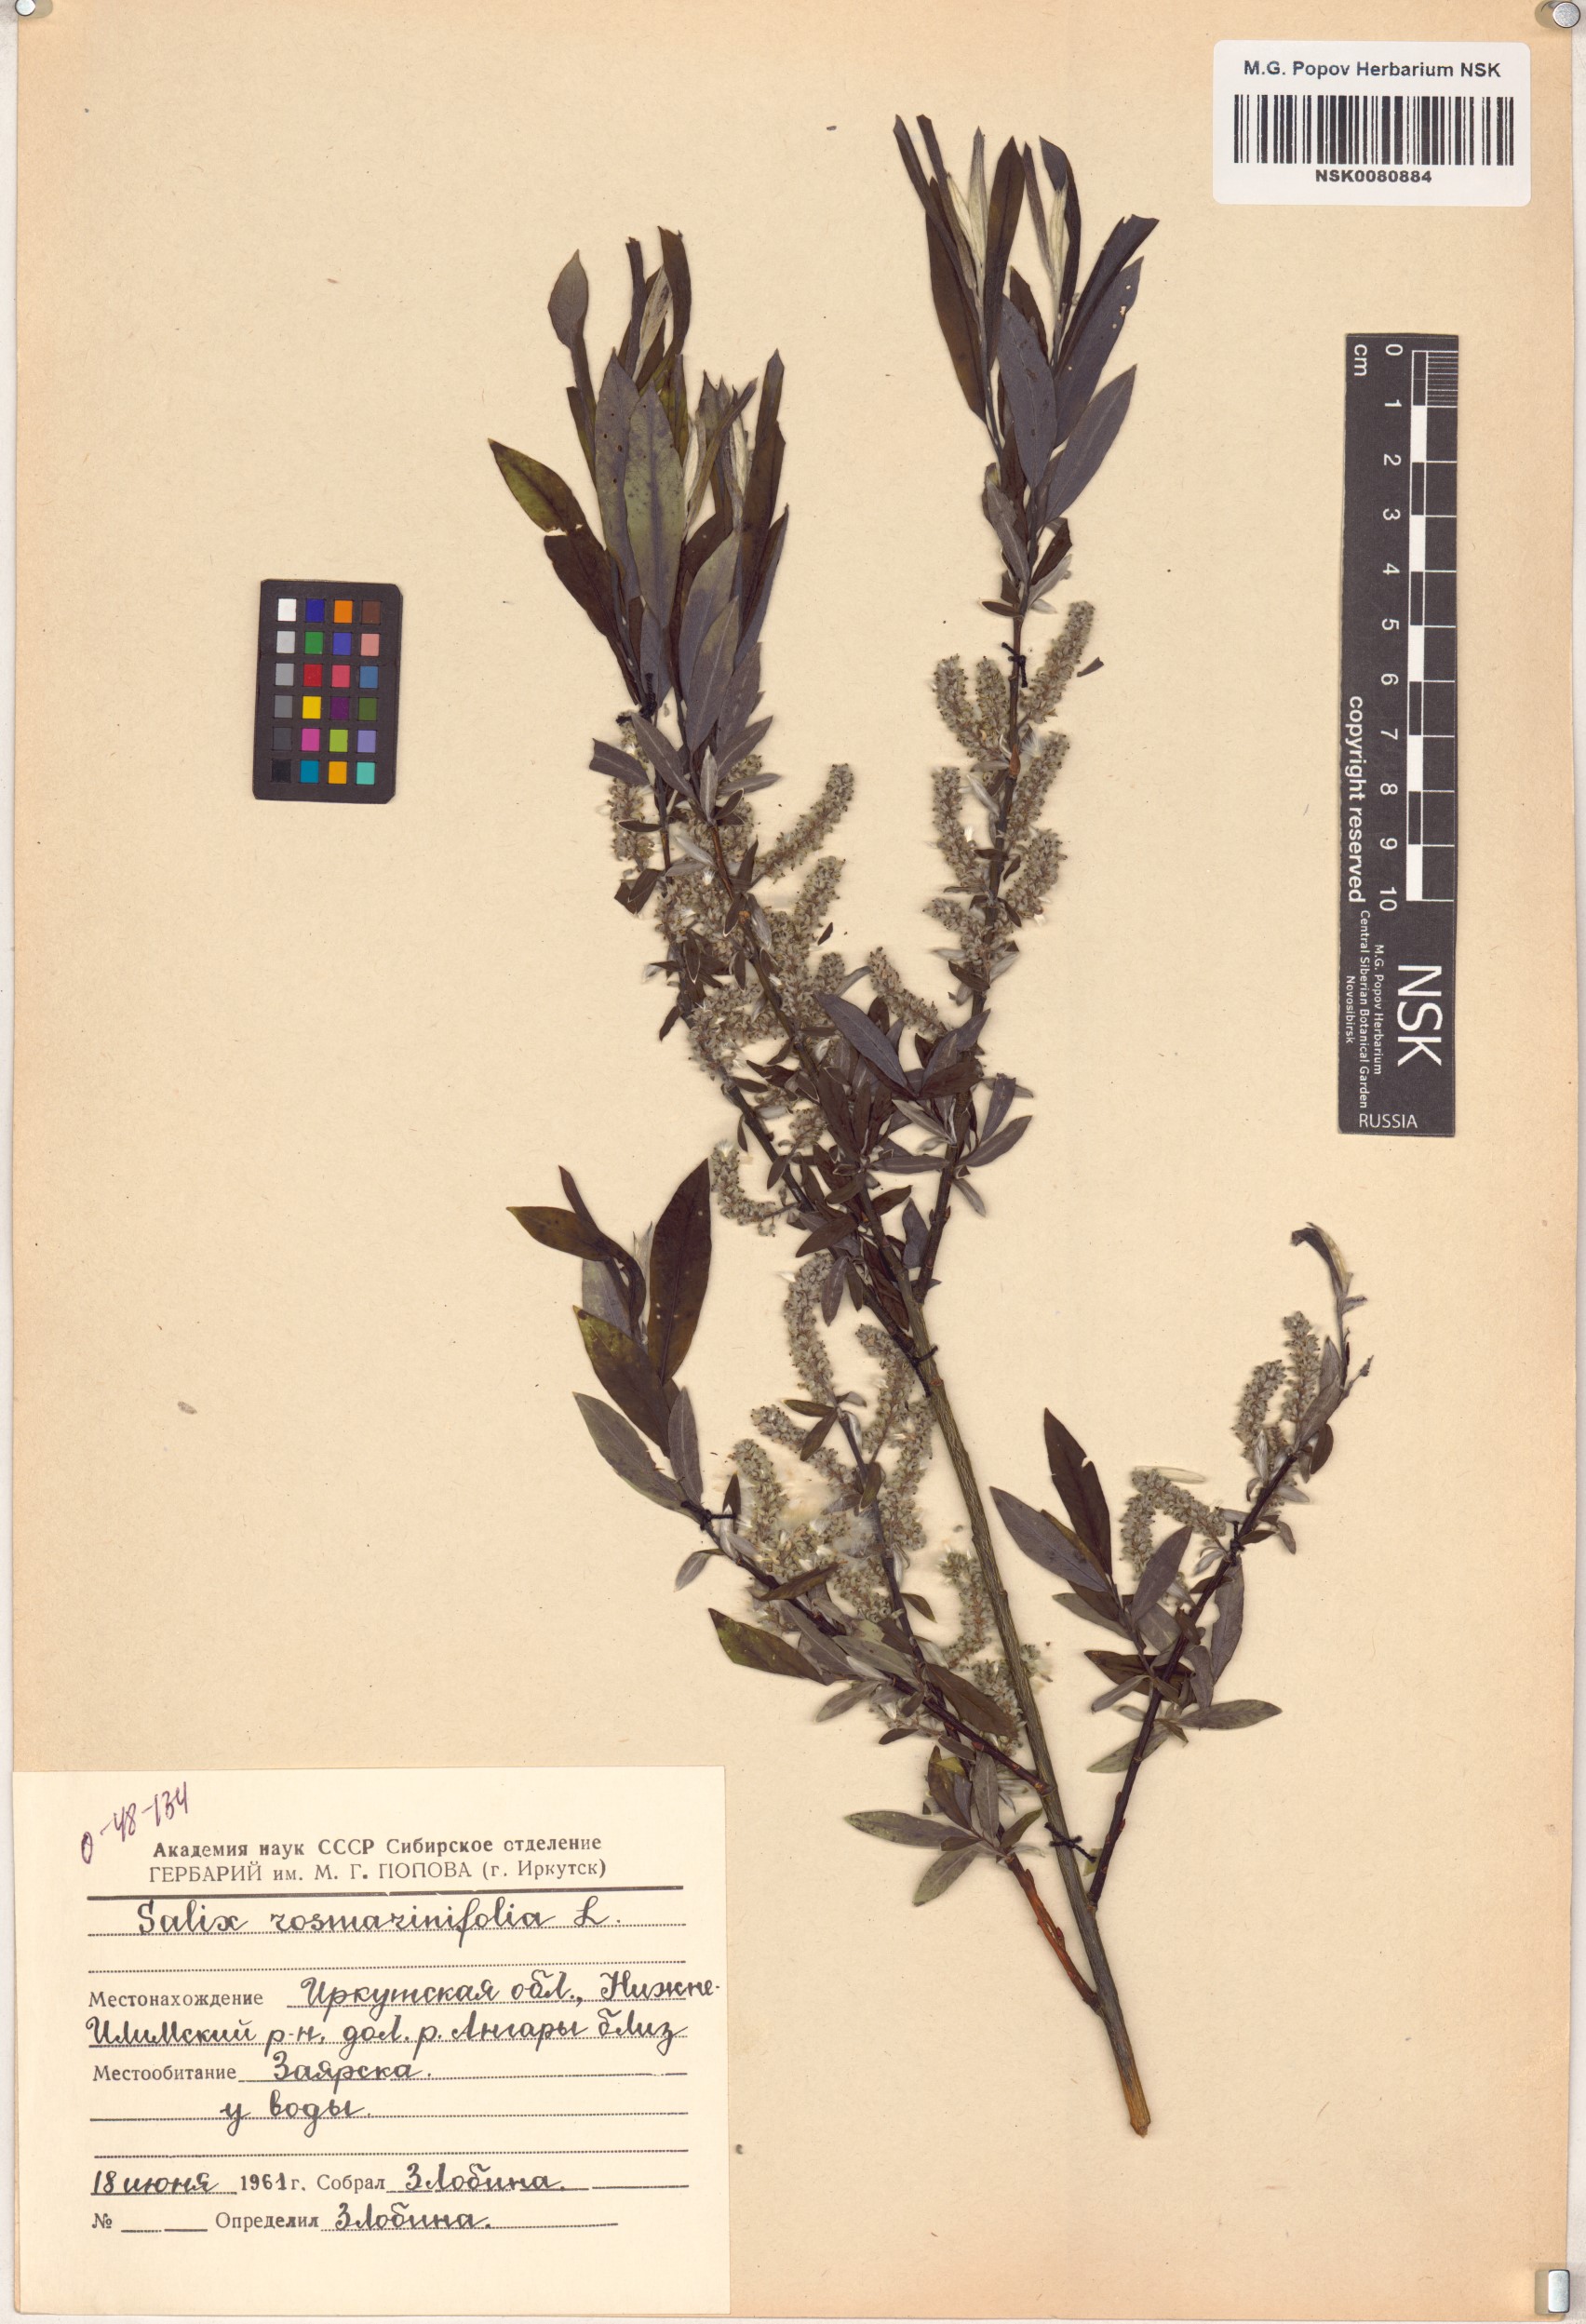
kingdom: Plantae
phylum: Tracheophyta
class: Magnoliopsida
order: Malpighiales
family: Salicaceae
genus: Salix
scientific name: Salix rosmarinifolia
